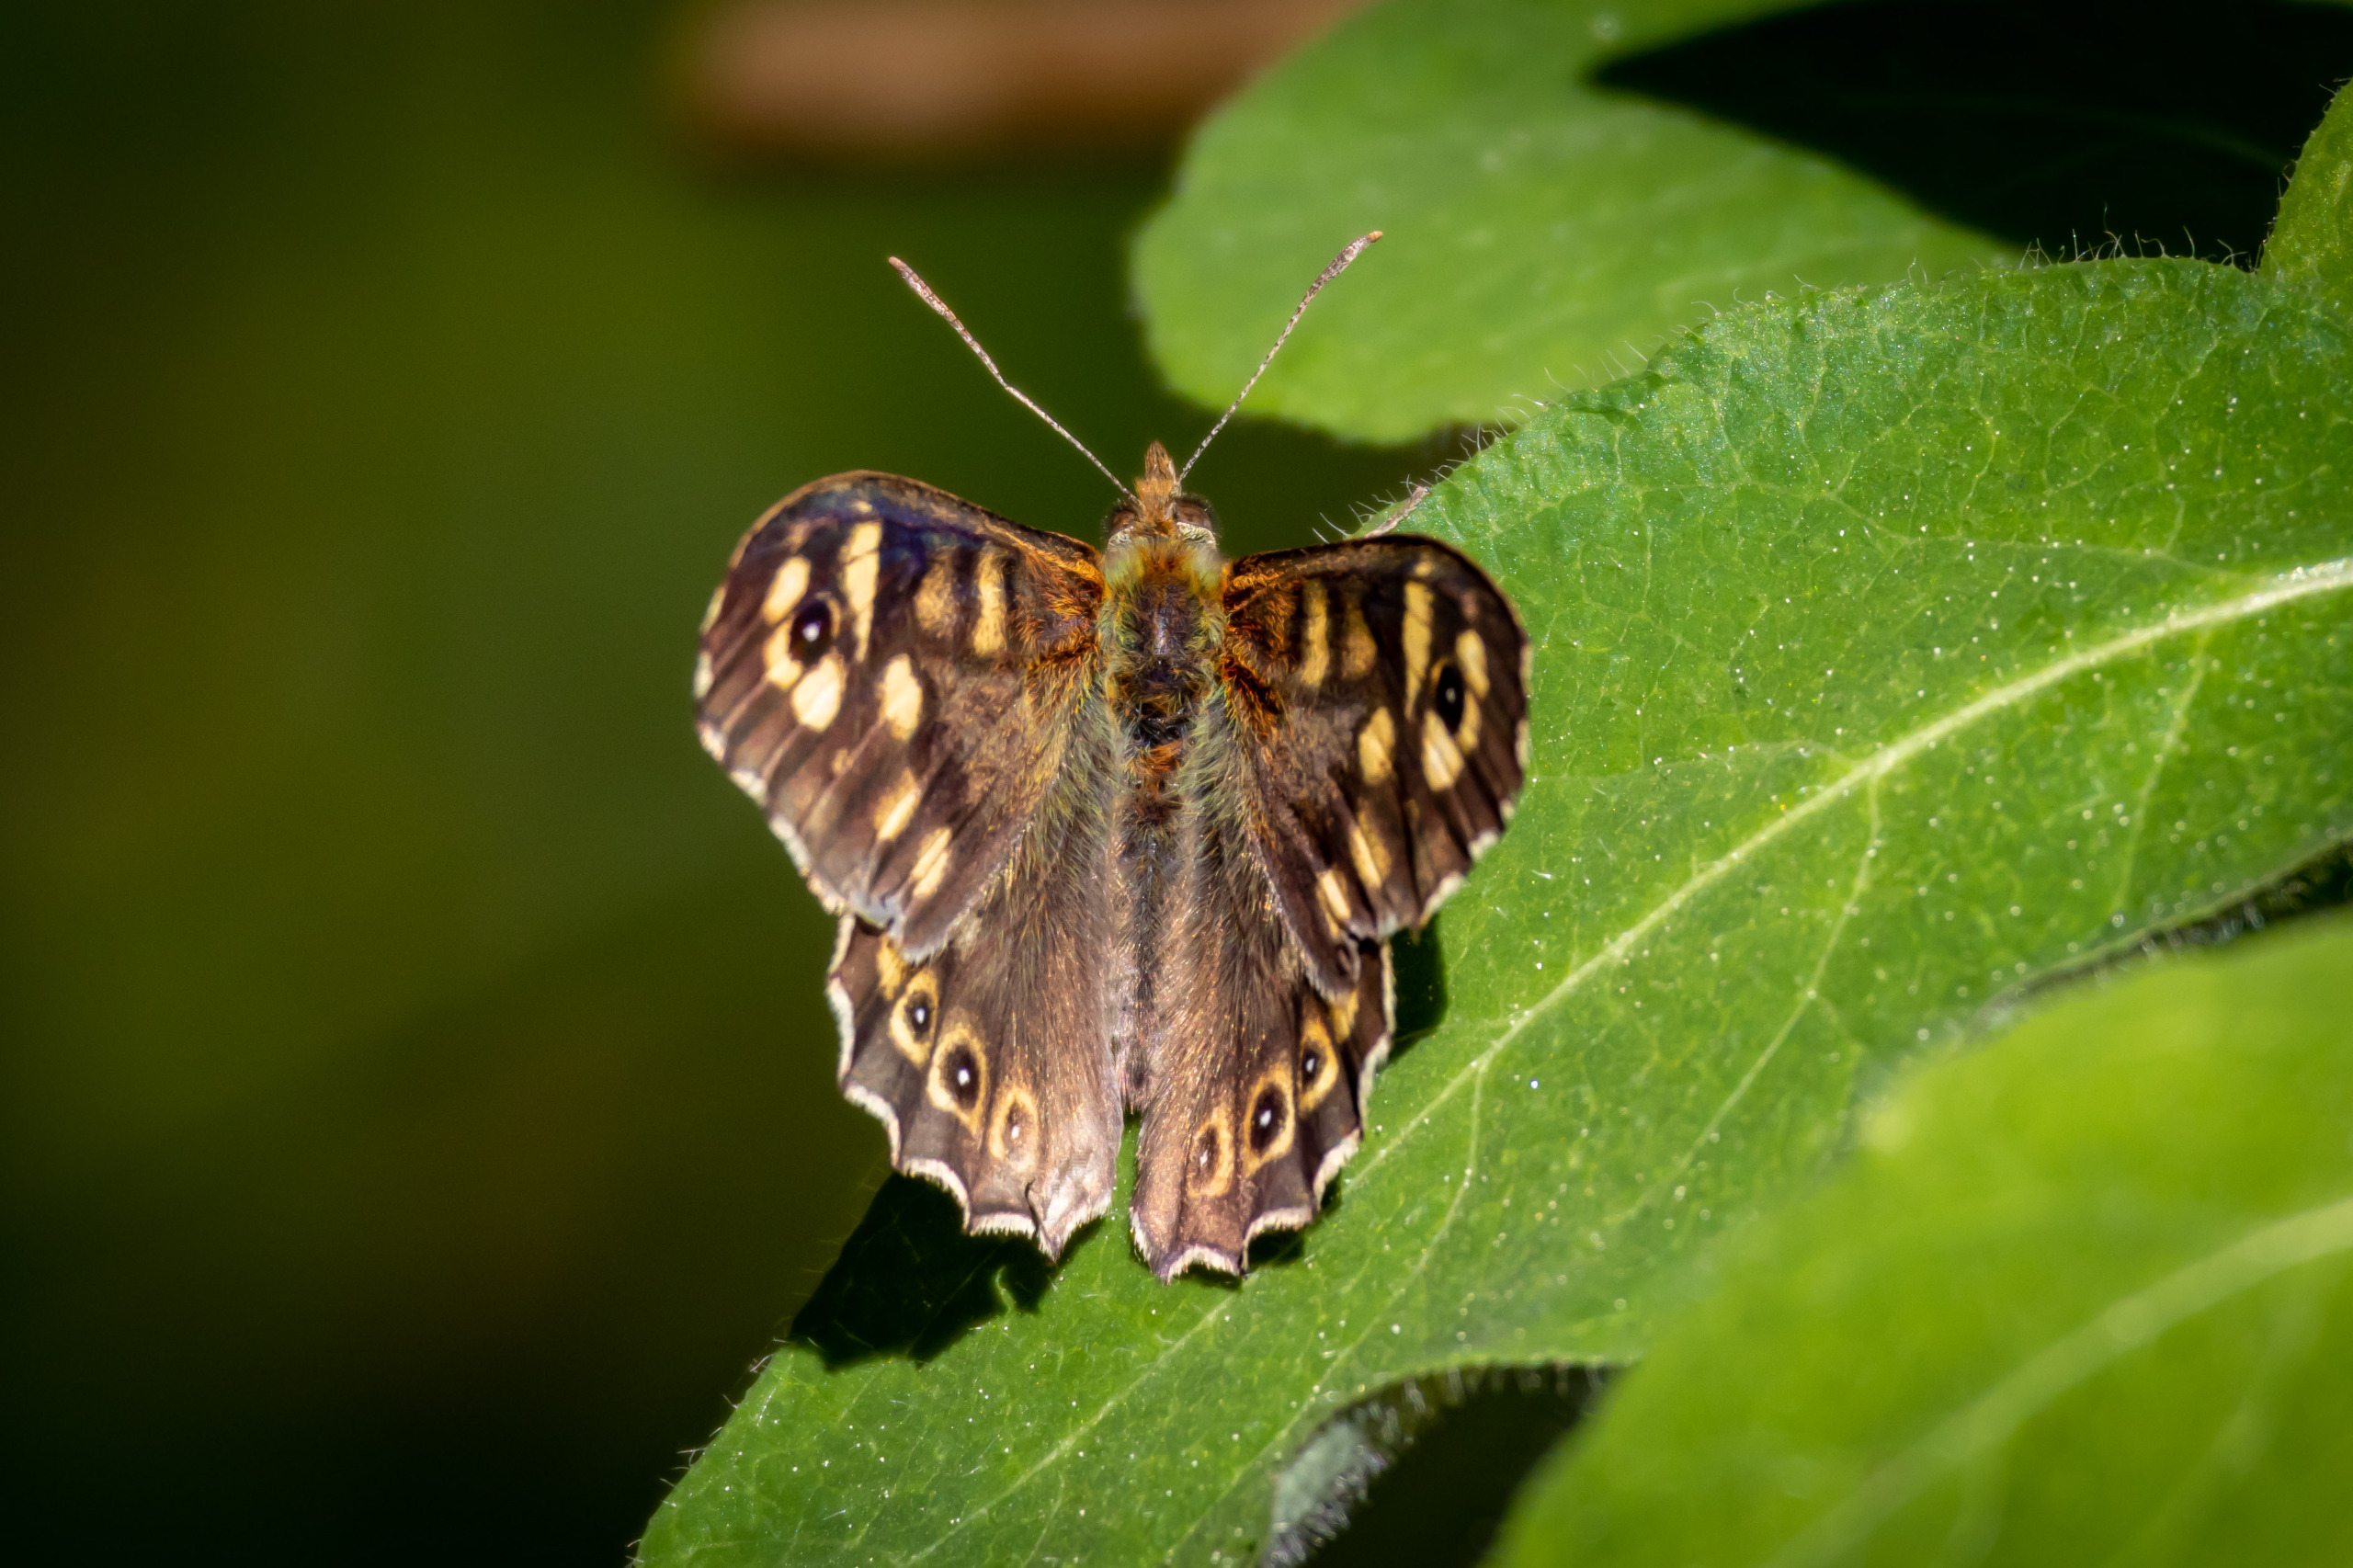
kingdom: Animalia
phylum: Arthropoda
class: Insecta
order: Lepidoptera
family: Nymphalidae
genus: Pararge
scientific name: Pararge aegeria
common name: Skovrandøje
